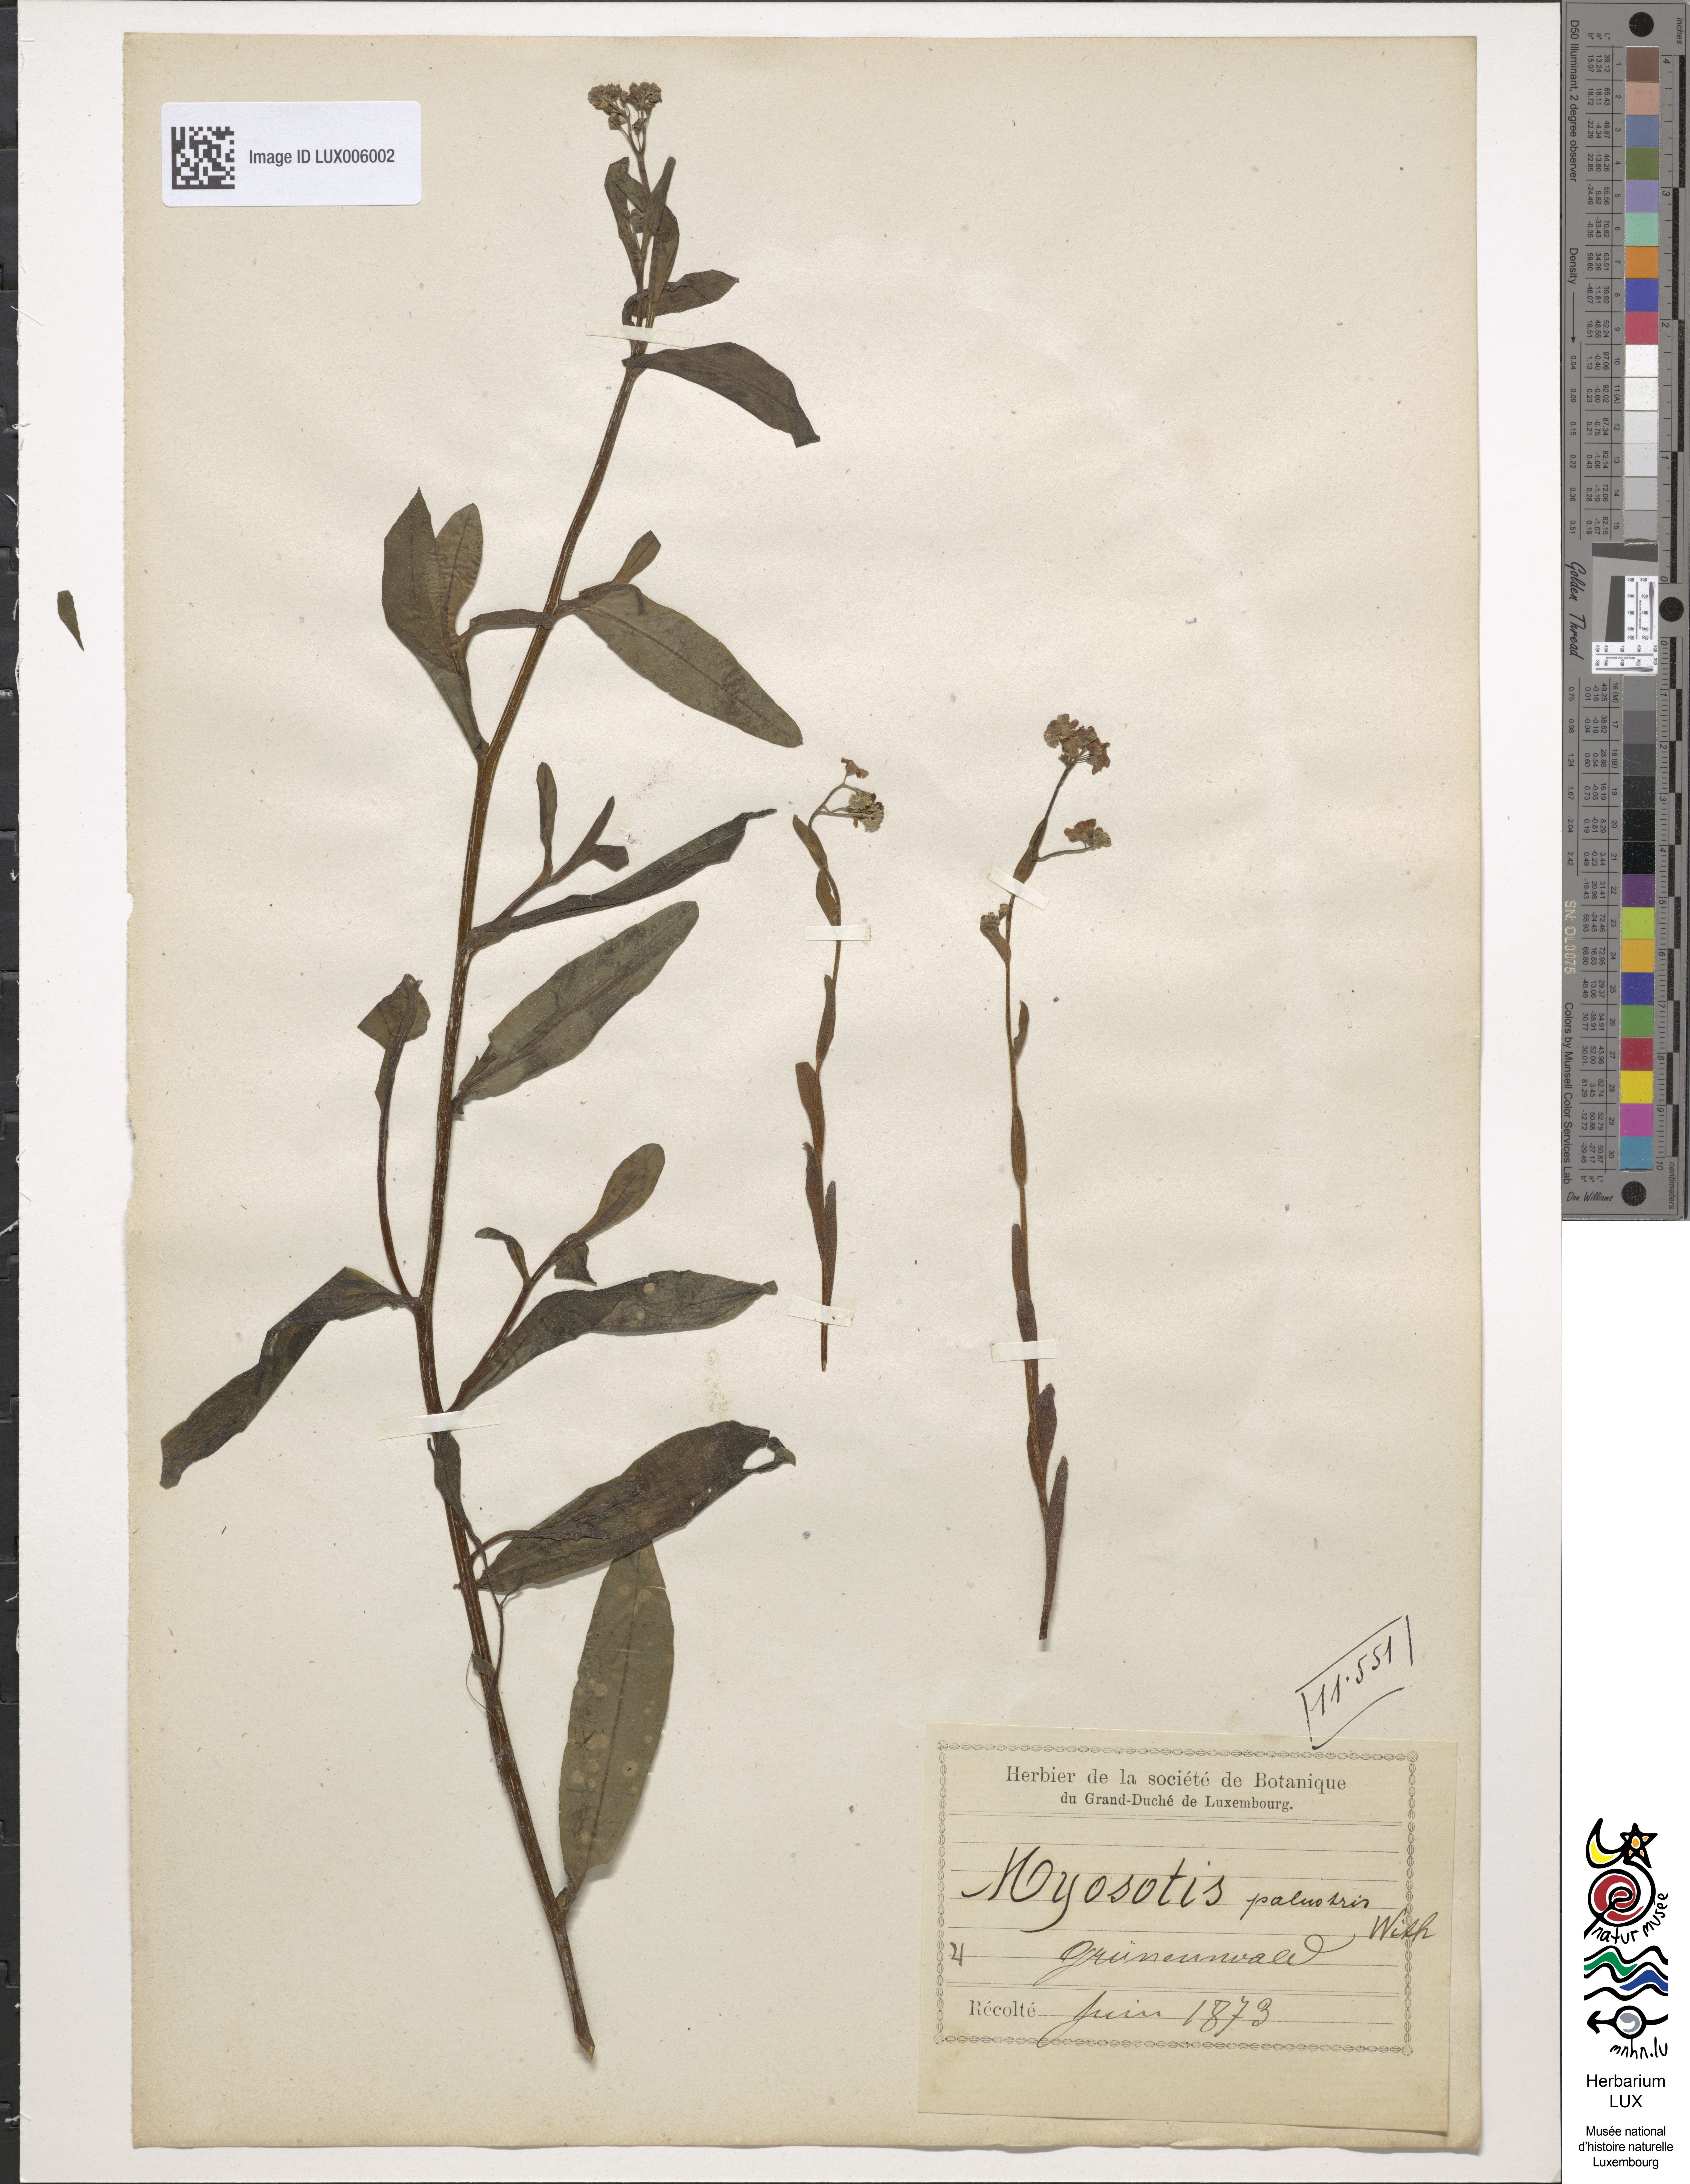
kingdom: Plantae
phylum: Tracheophyta
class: Magnoliopsida
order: Boraginales
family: Boraginaceae
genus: Myosotis
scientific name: Myosotis scorpioides
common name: Water forget-me-not
